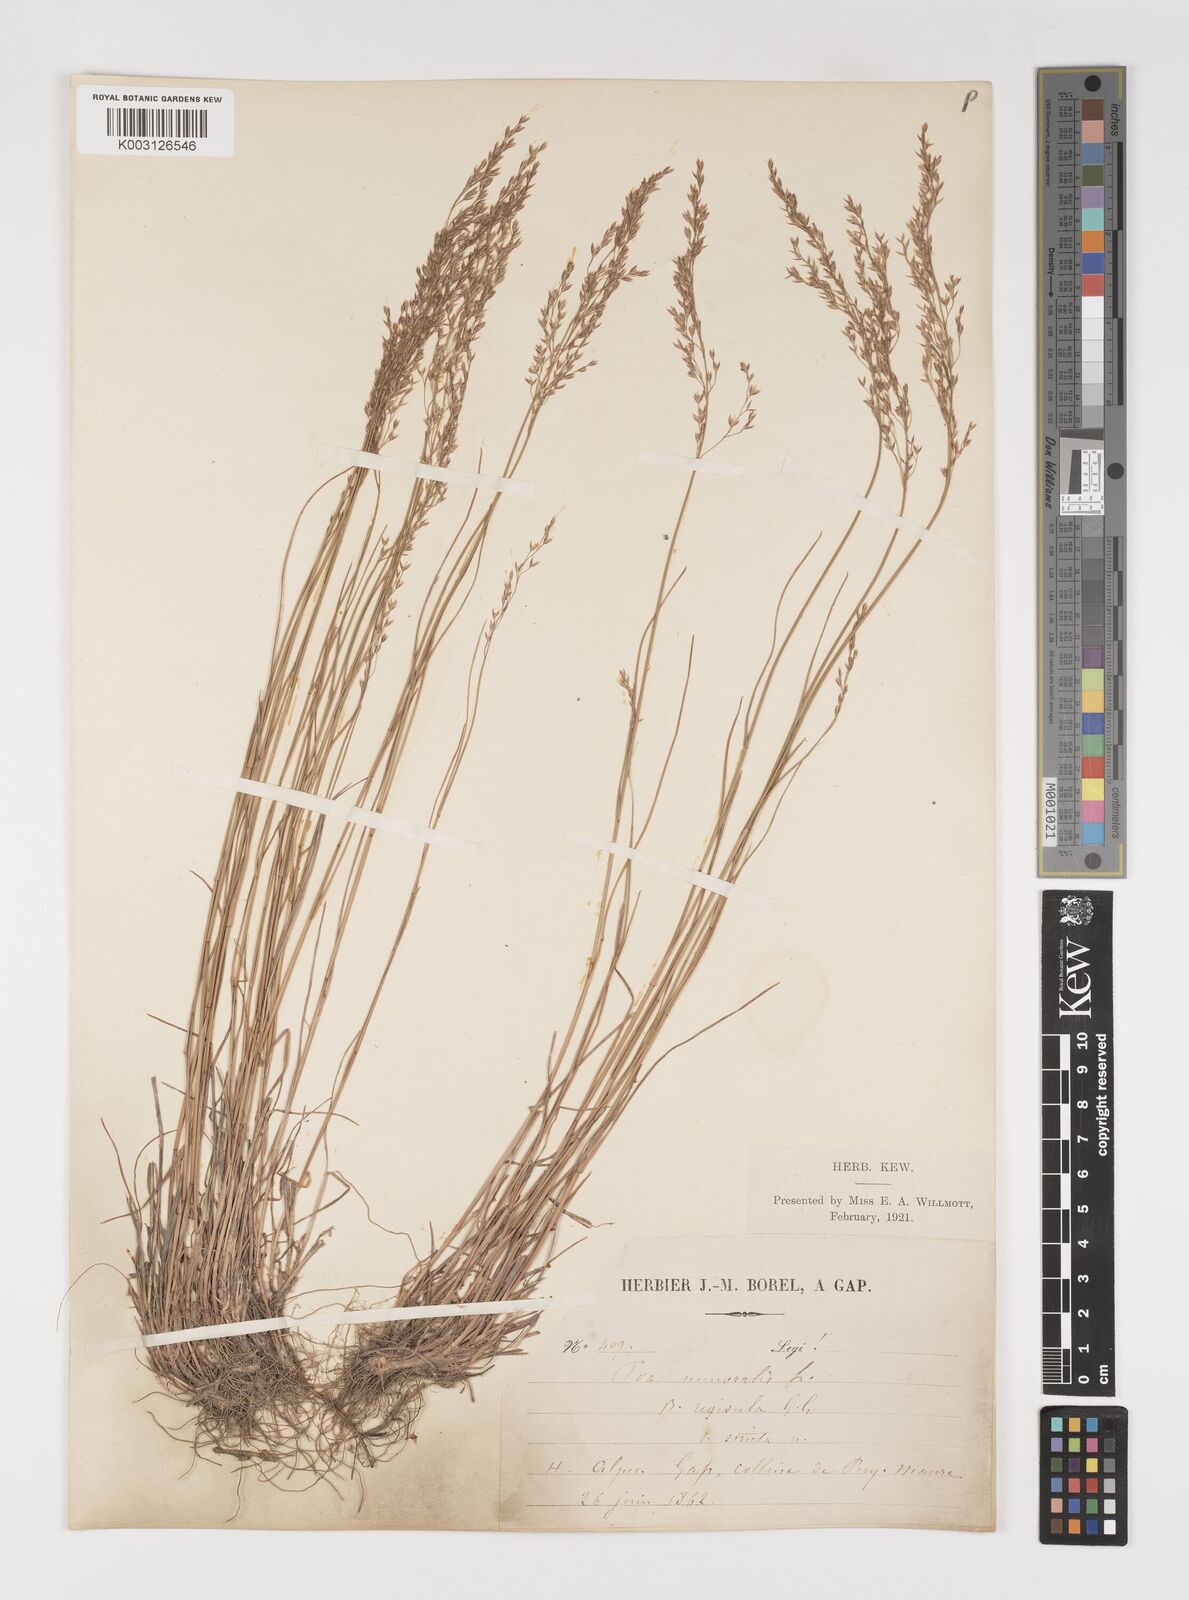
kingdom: Plantae
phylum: Tracheophyta
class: Liliopsida
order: Poales
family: Poaceae
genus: Poa
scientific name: Poa nemoralis
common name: Wood bluegrass
